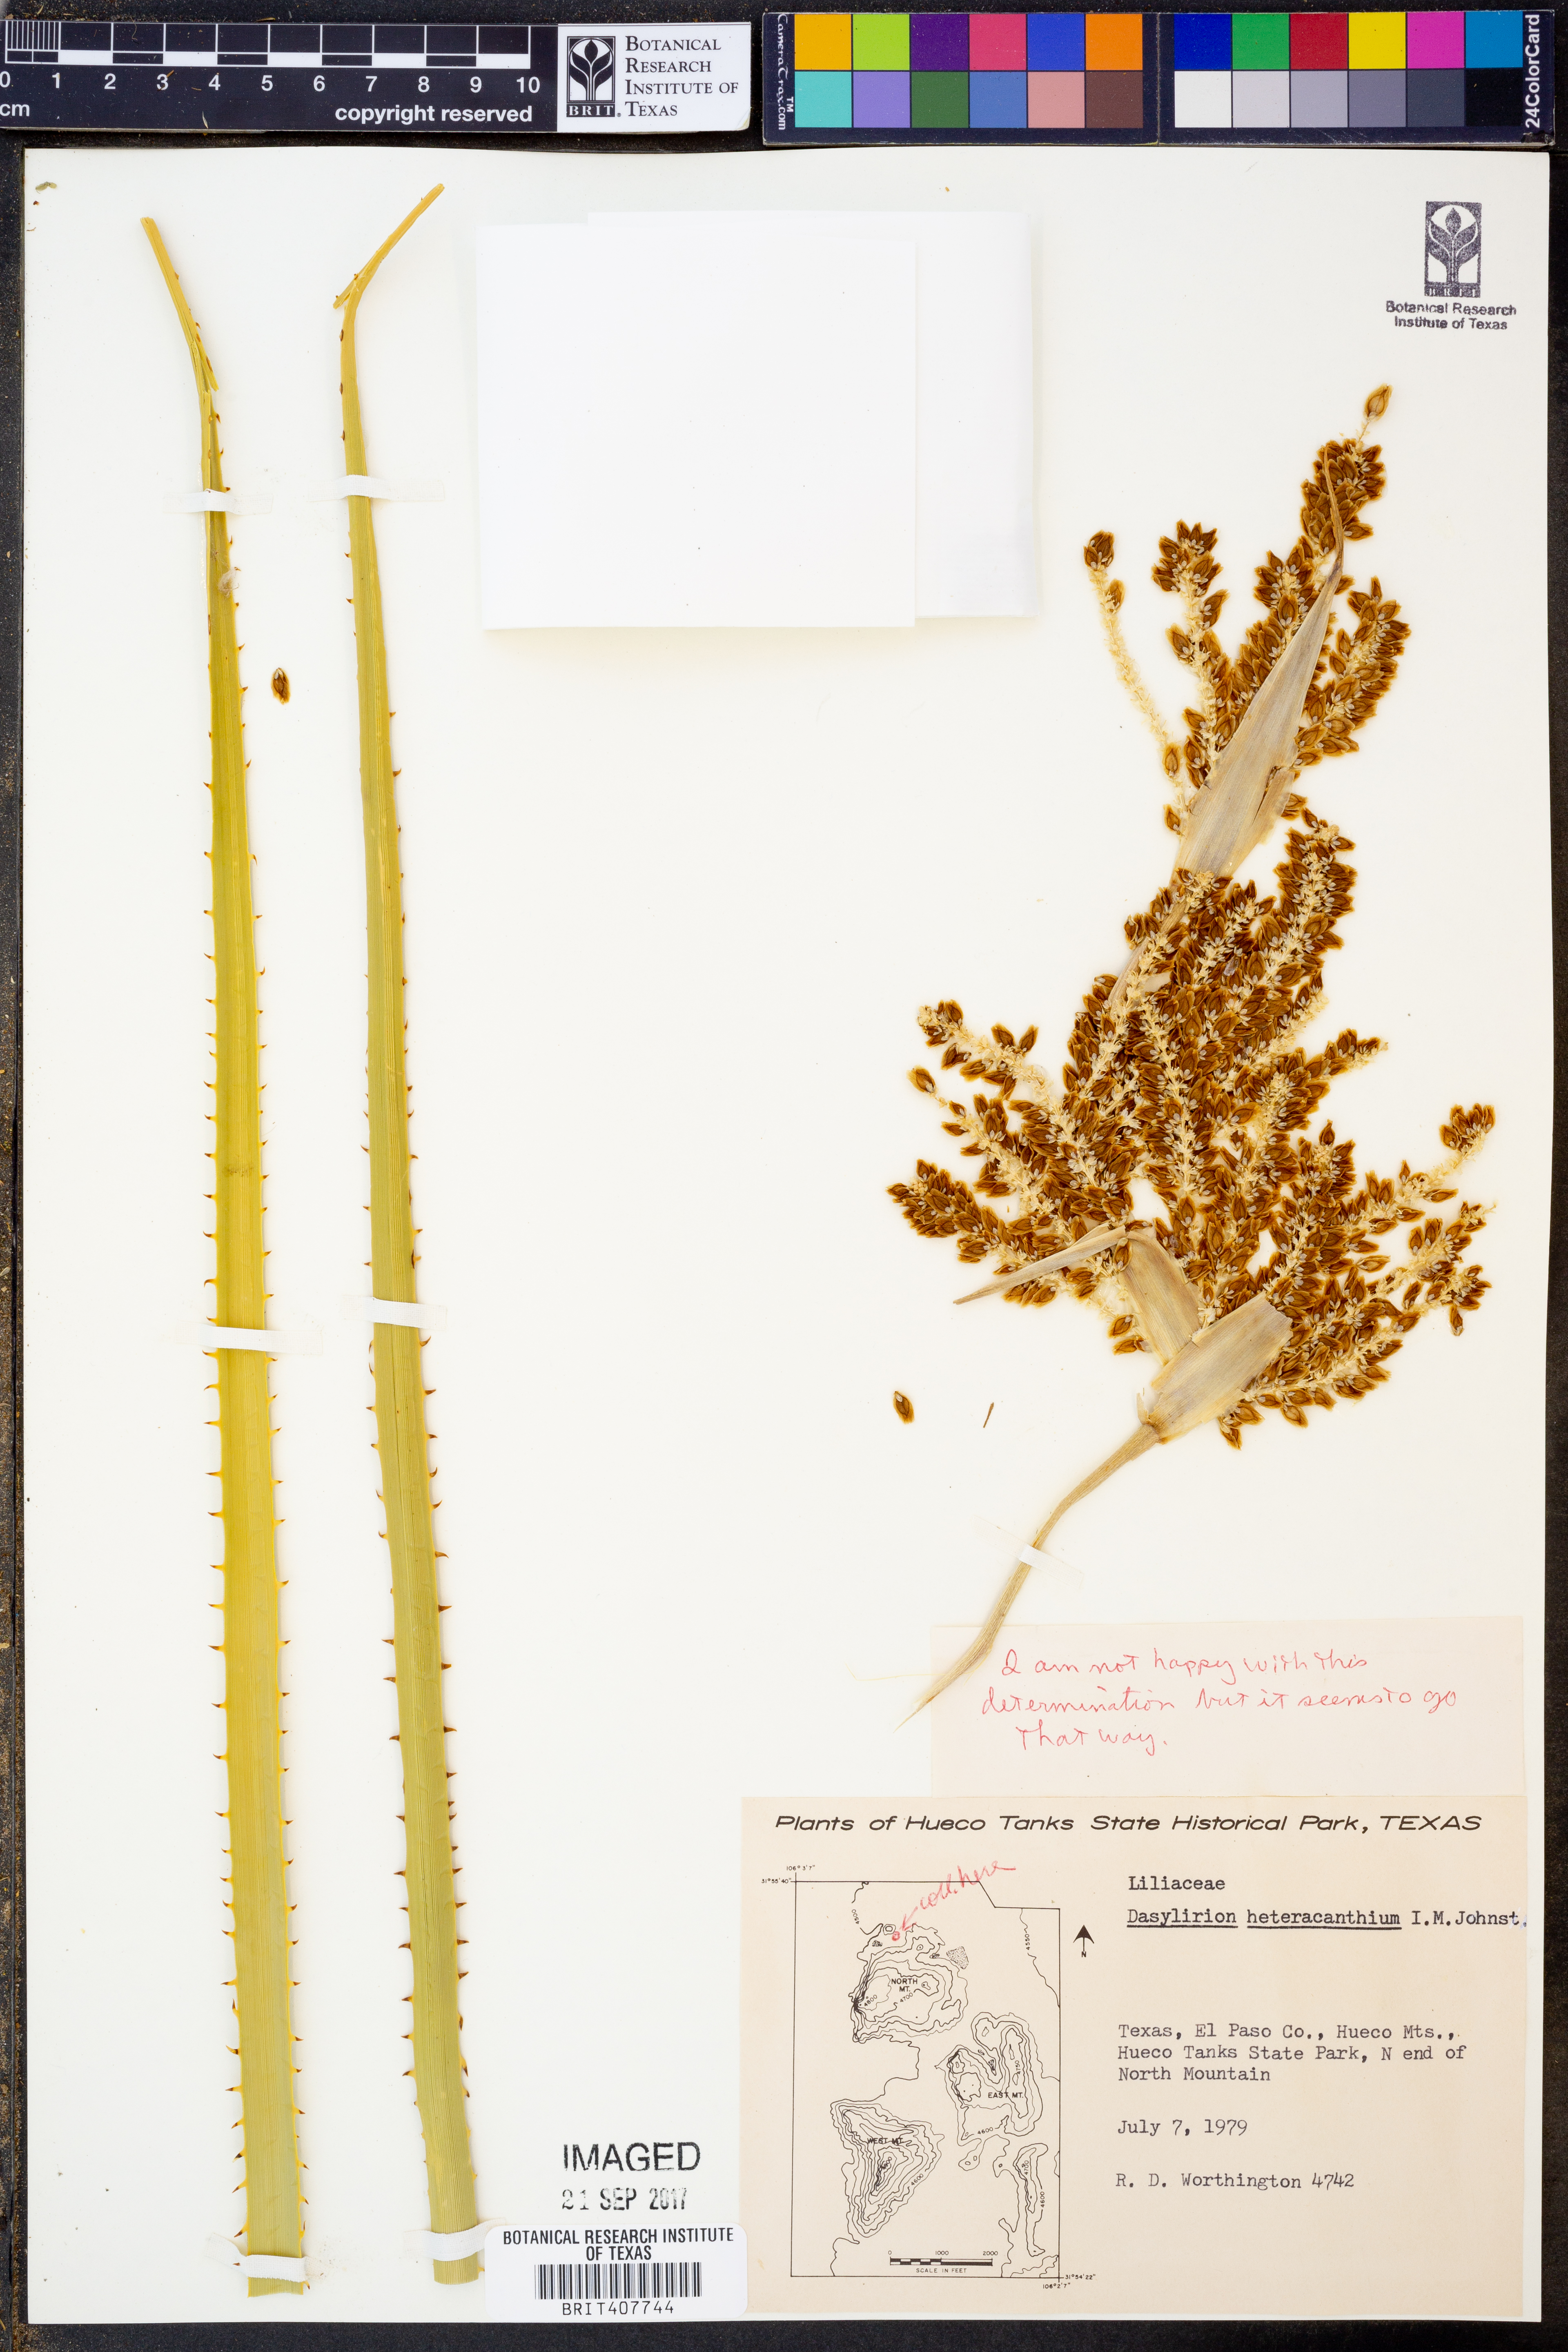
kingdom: Plantae
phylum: Tracheophyta
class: Liliopsida
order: Asparagales
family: Asparagaceae
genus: Dasylirion
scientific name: Dasylirion leiophyllum
